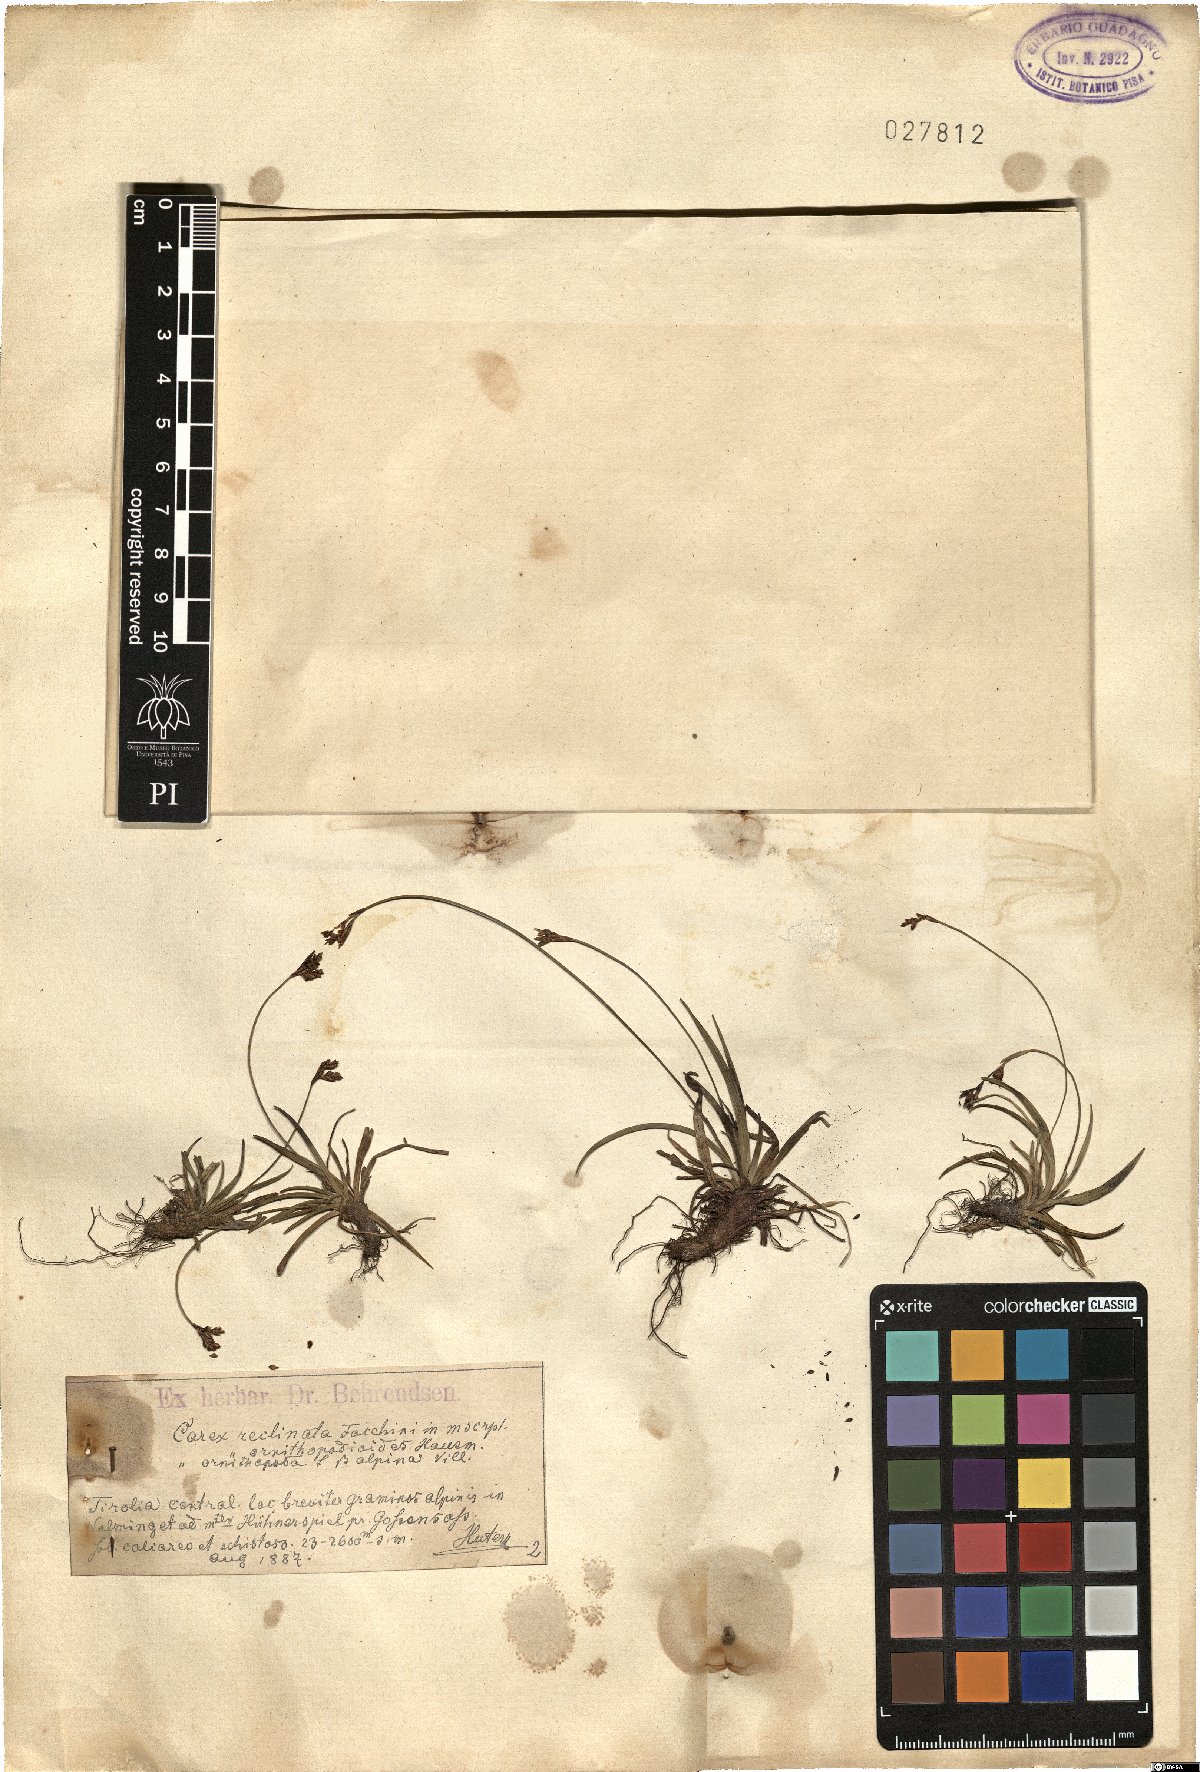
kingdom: Plantae
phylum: Tracheophyta
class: Liliopsida
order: Poales
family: Cyperaceae
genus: Carex
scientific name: Carex ornithopoda
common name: Bird's-foot sedge
